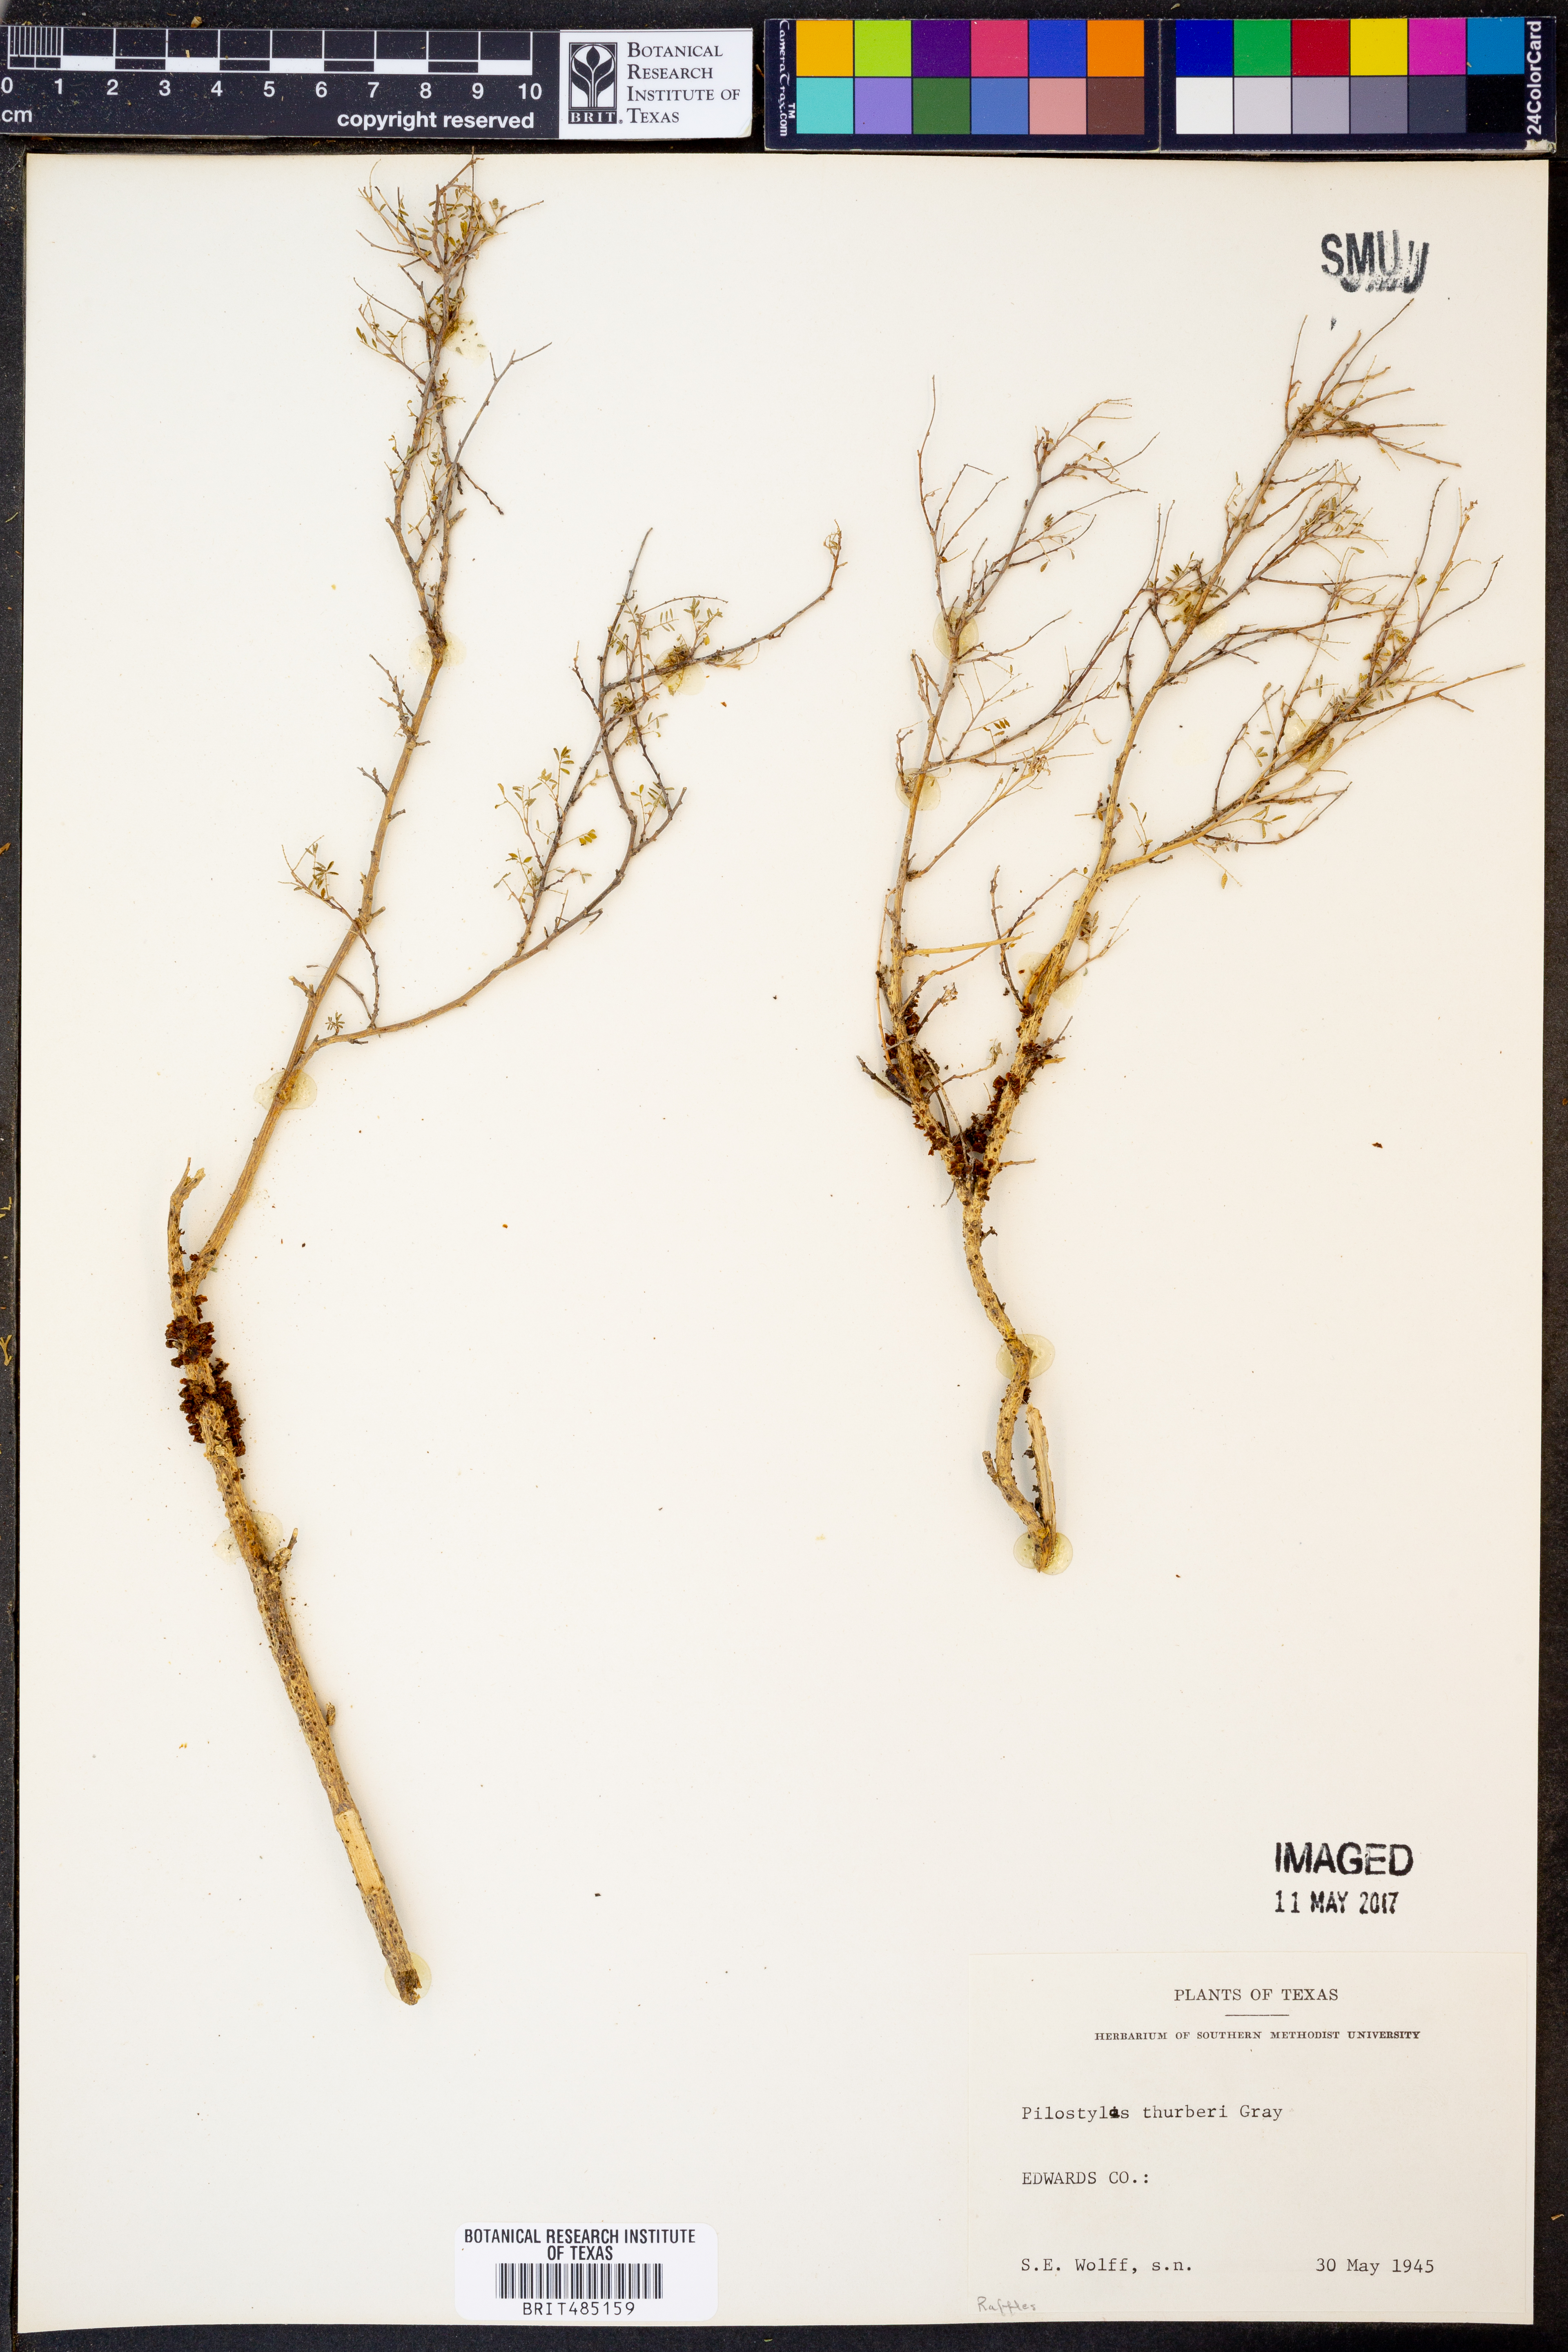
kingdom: Plantae
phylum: Tracheophyta
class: Magnoliopsida
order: Cucurbitales
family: Apodanthaceae
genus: Pilostyles
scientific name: Pilostyles thurberi
